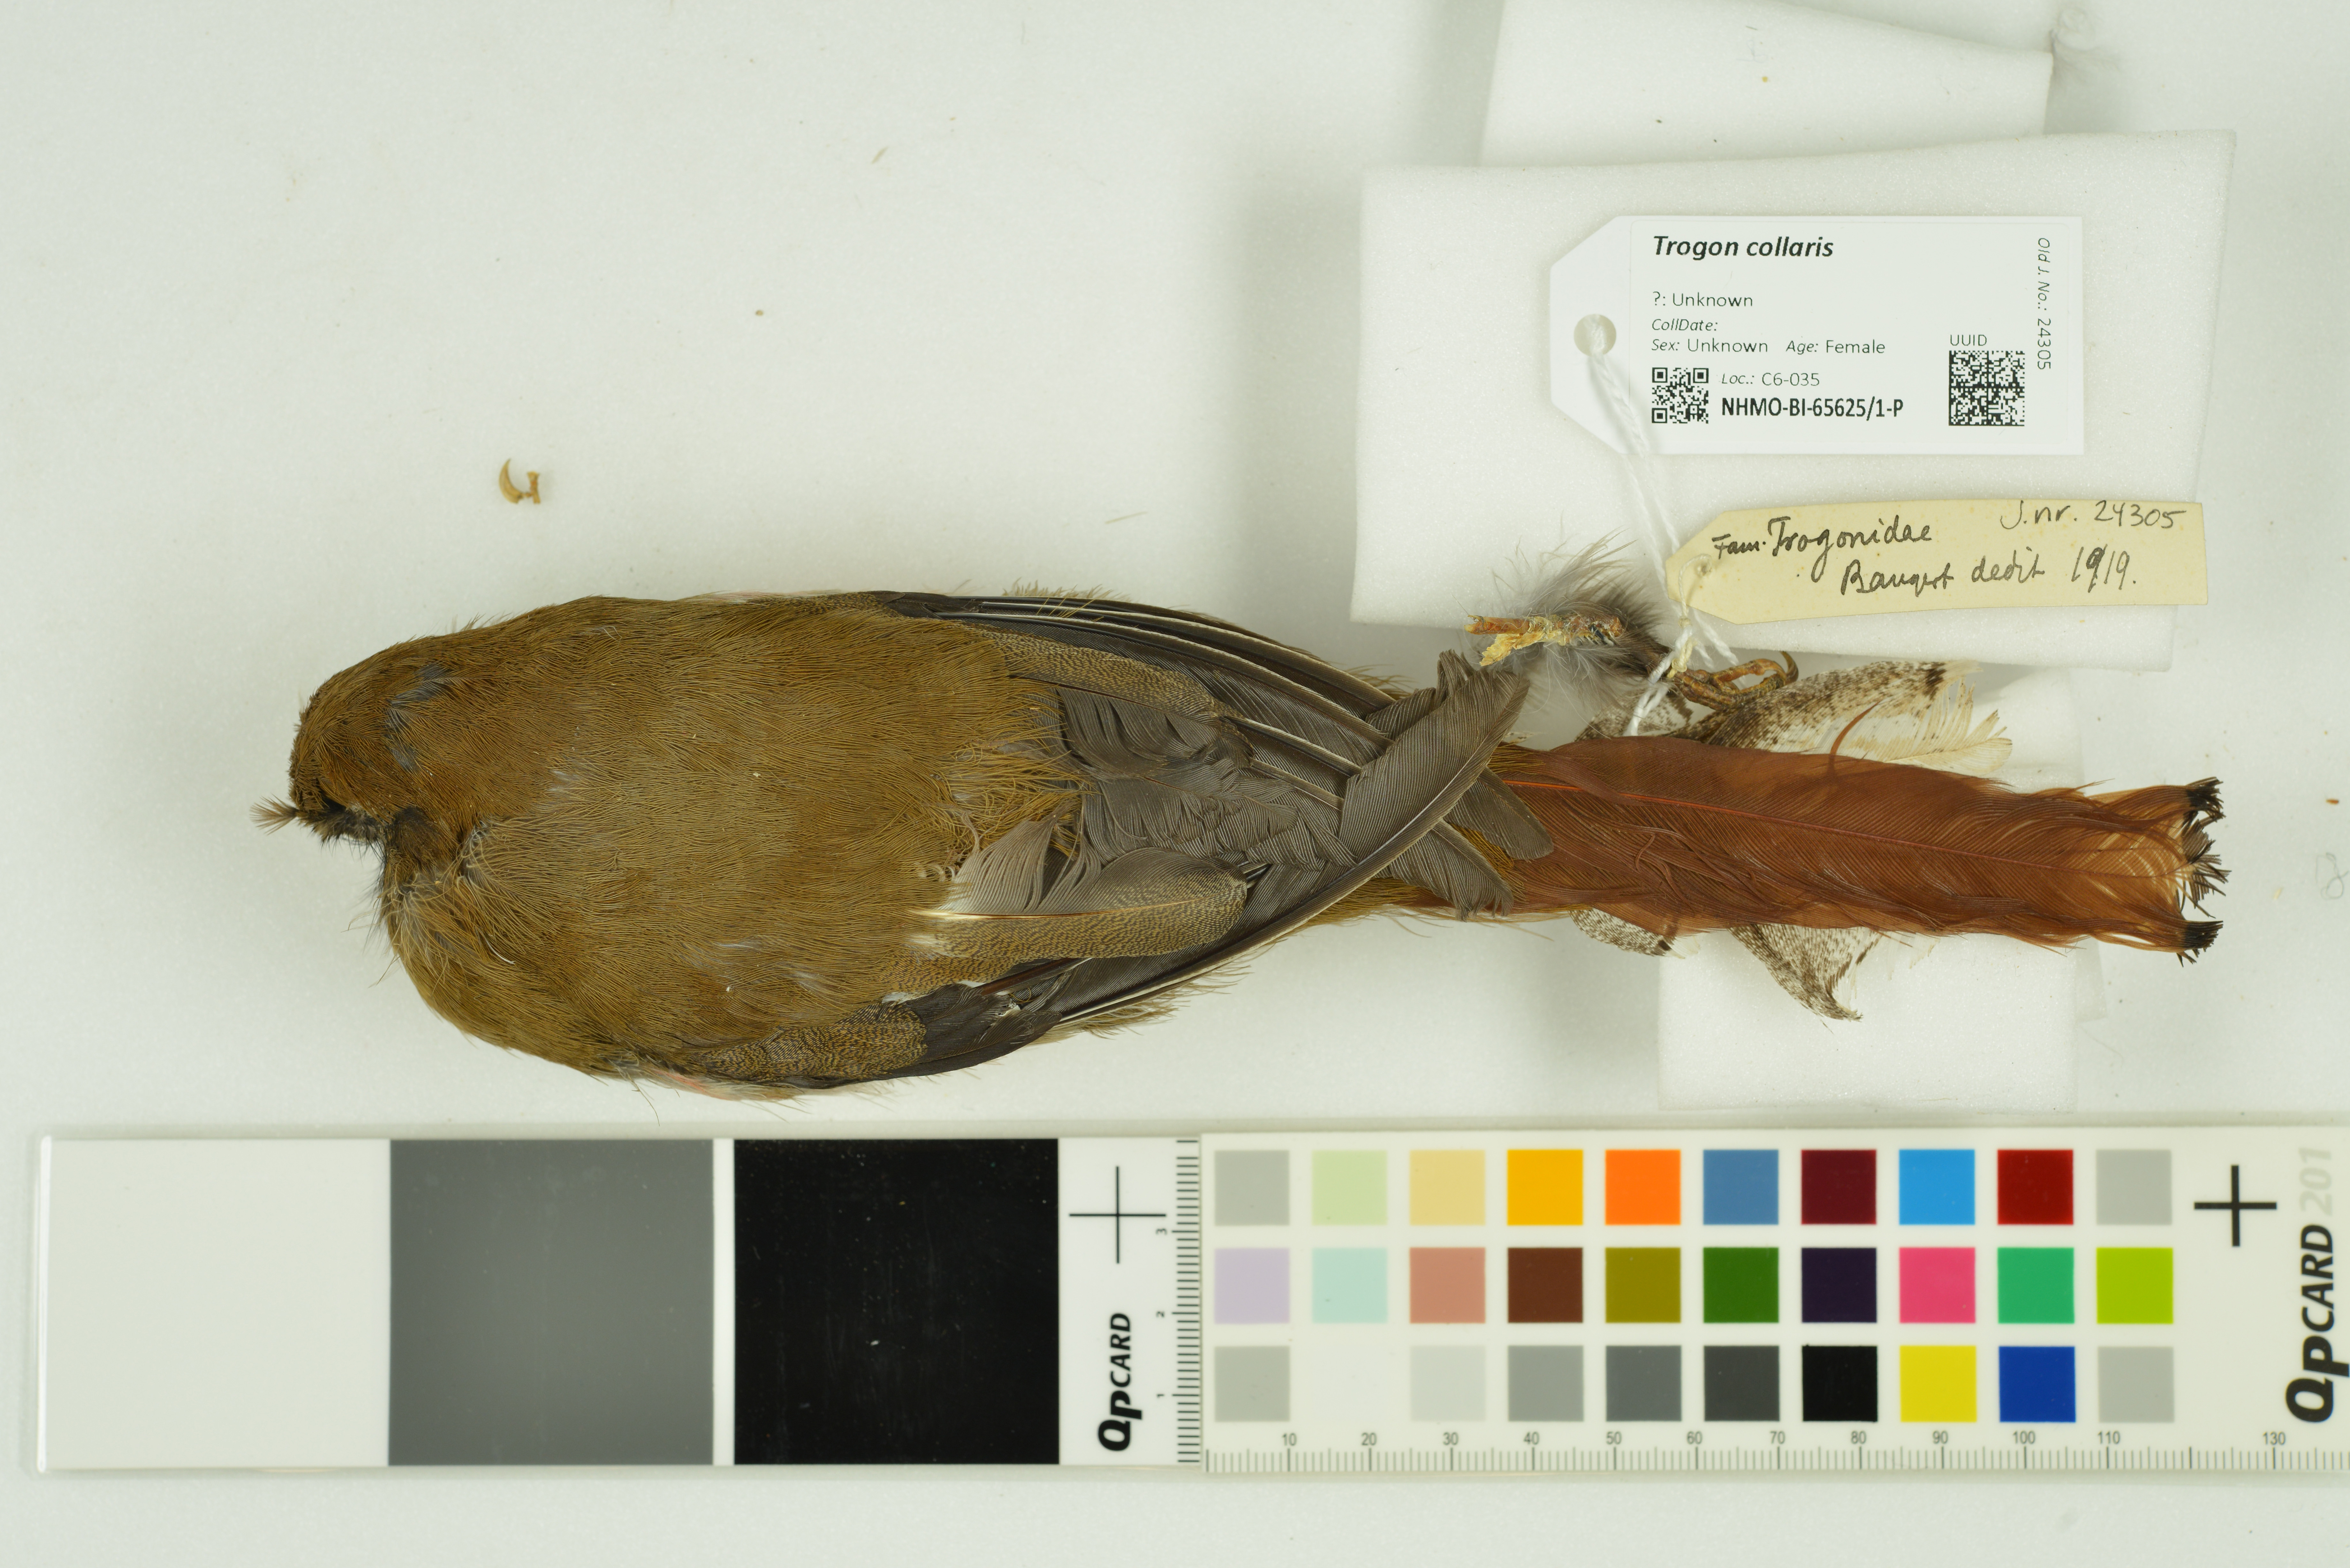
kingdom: Animalia
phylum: Chordata
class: Aves
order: Trogoniformes
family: Trogonidae
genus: Trogon
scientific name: Trogon collaris
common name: Collared trogon
